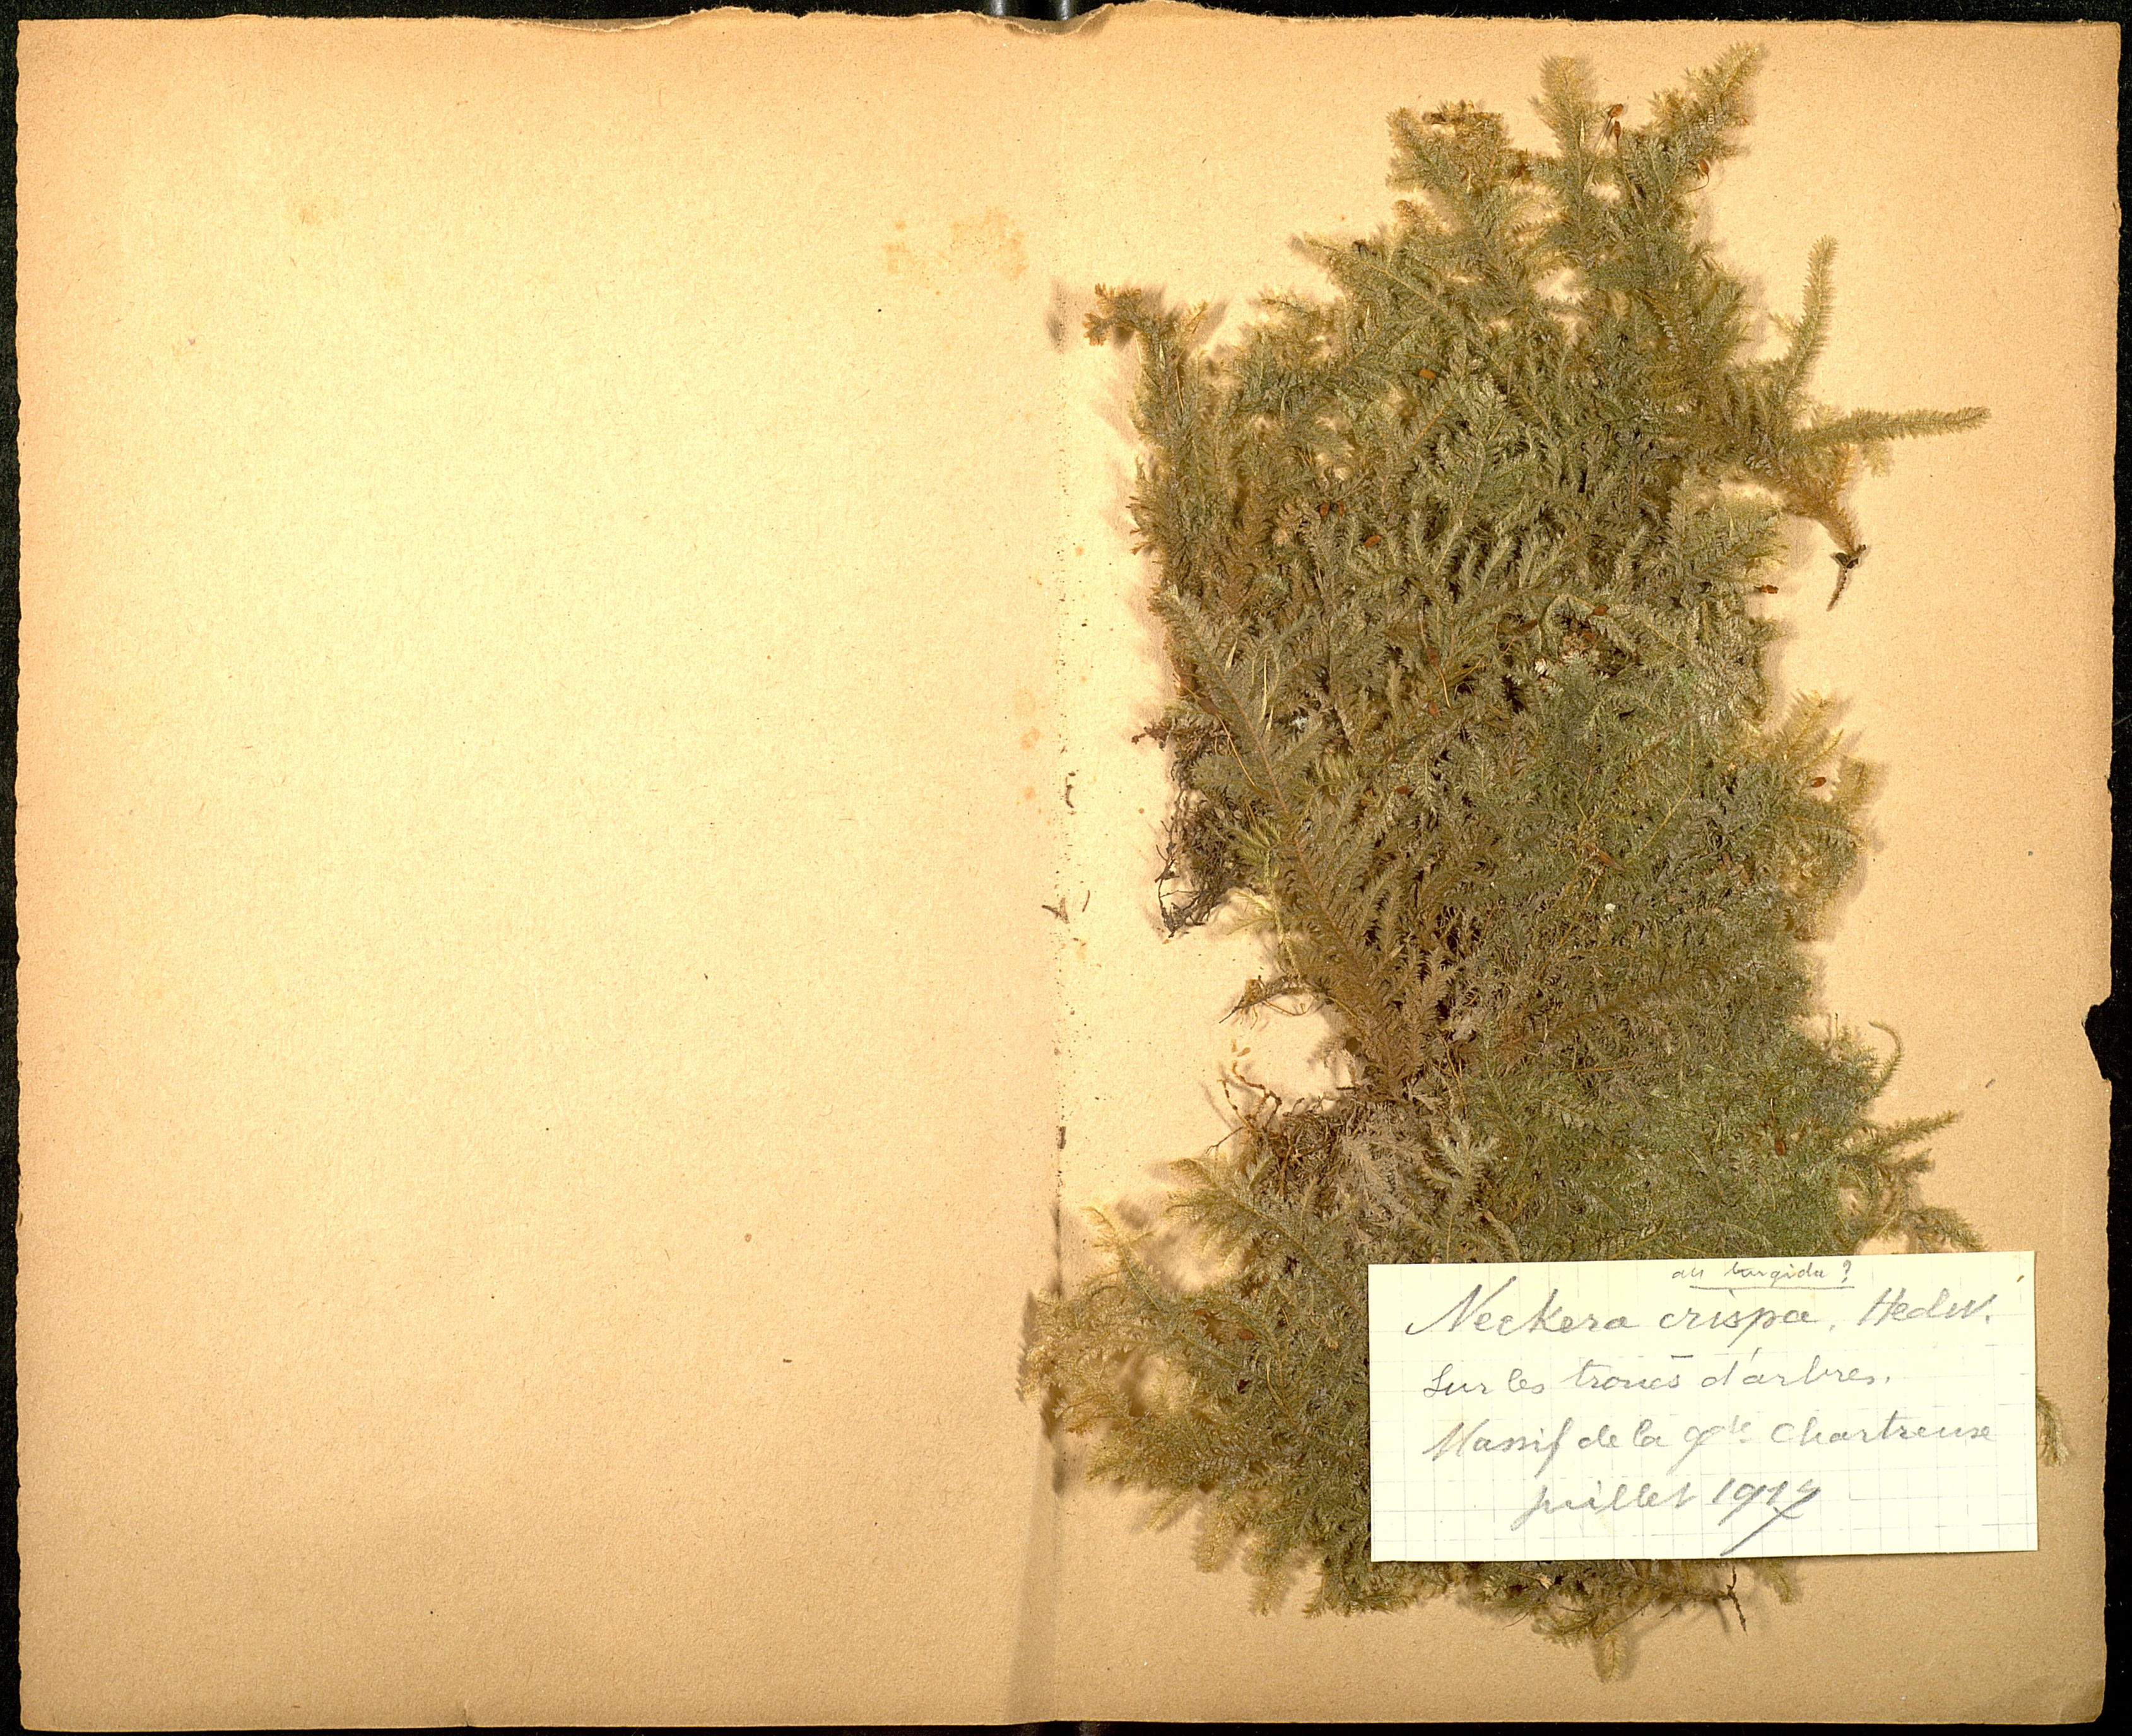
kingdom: Plantae
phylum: Bryophyta
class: Bryopsida
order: Hypnales
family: Neckeraceae
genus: Exsertotheca
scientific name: Exsertotheca crispa
